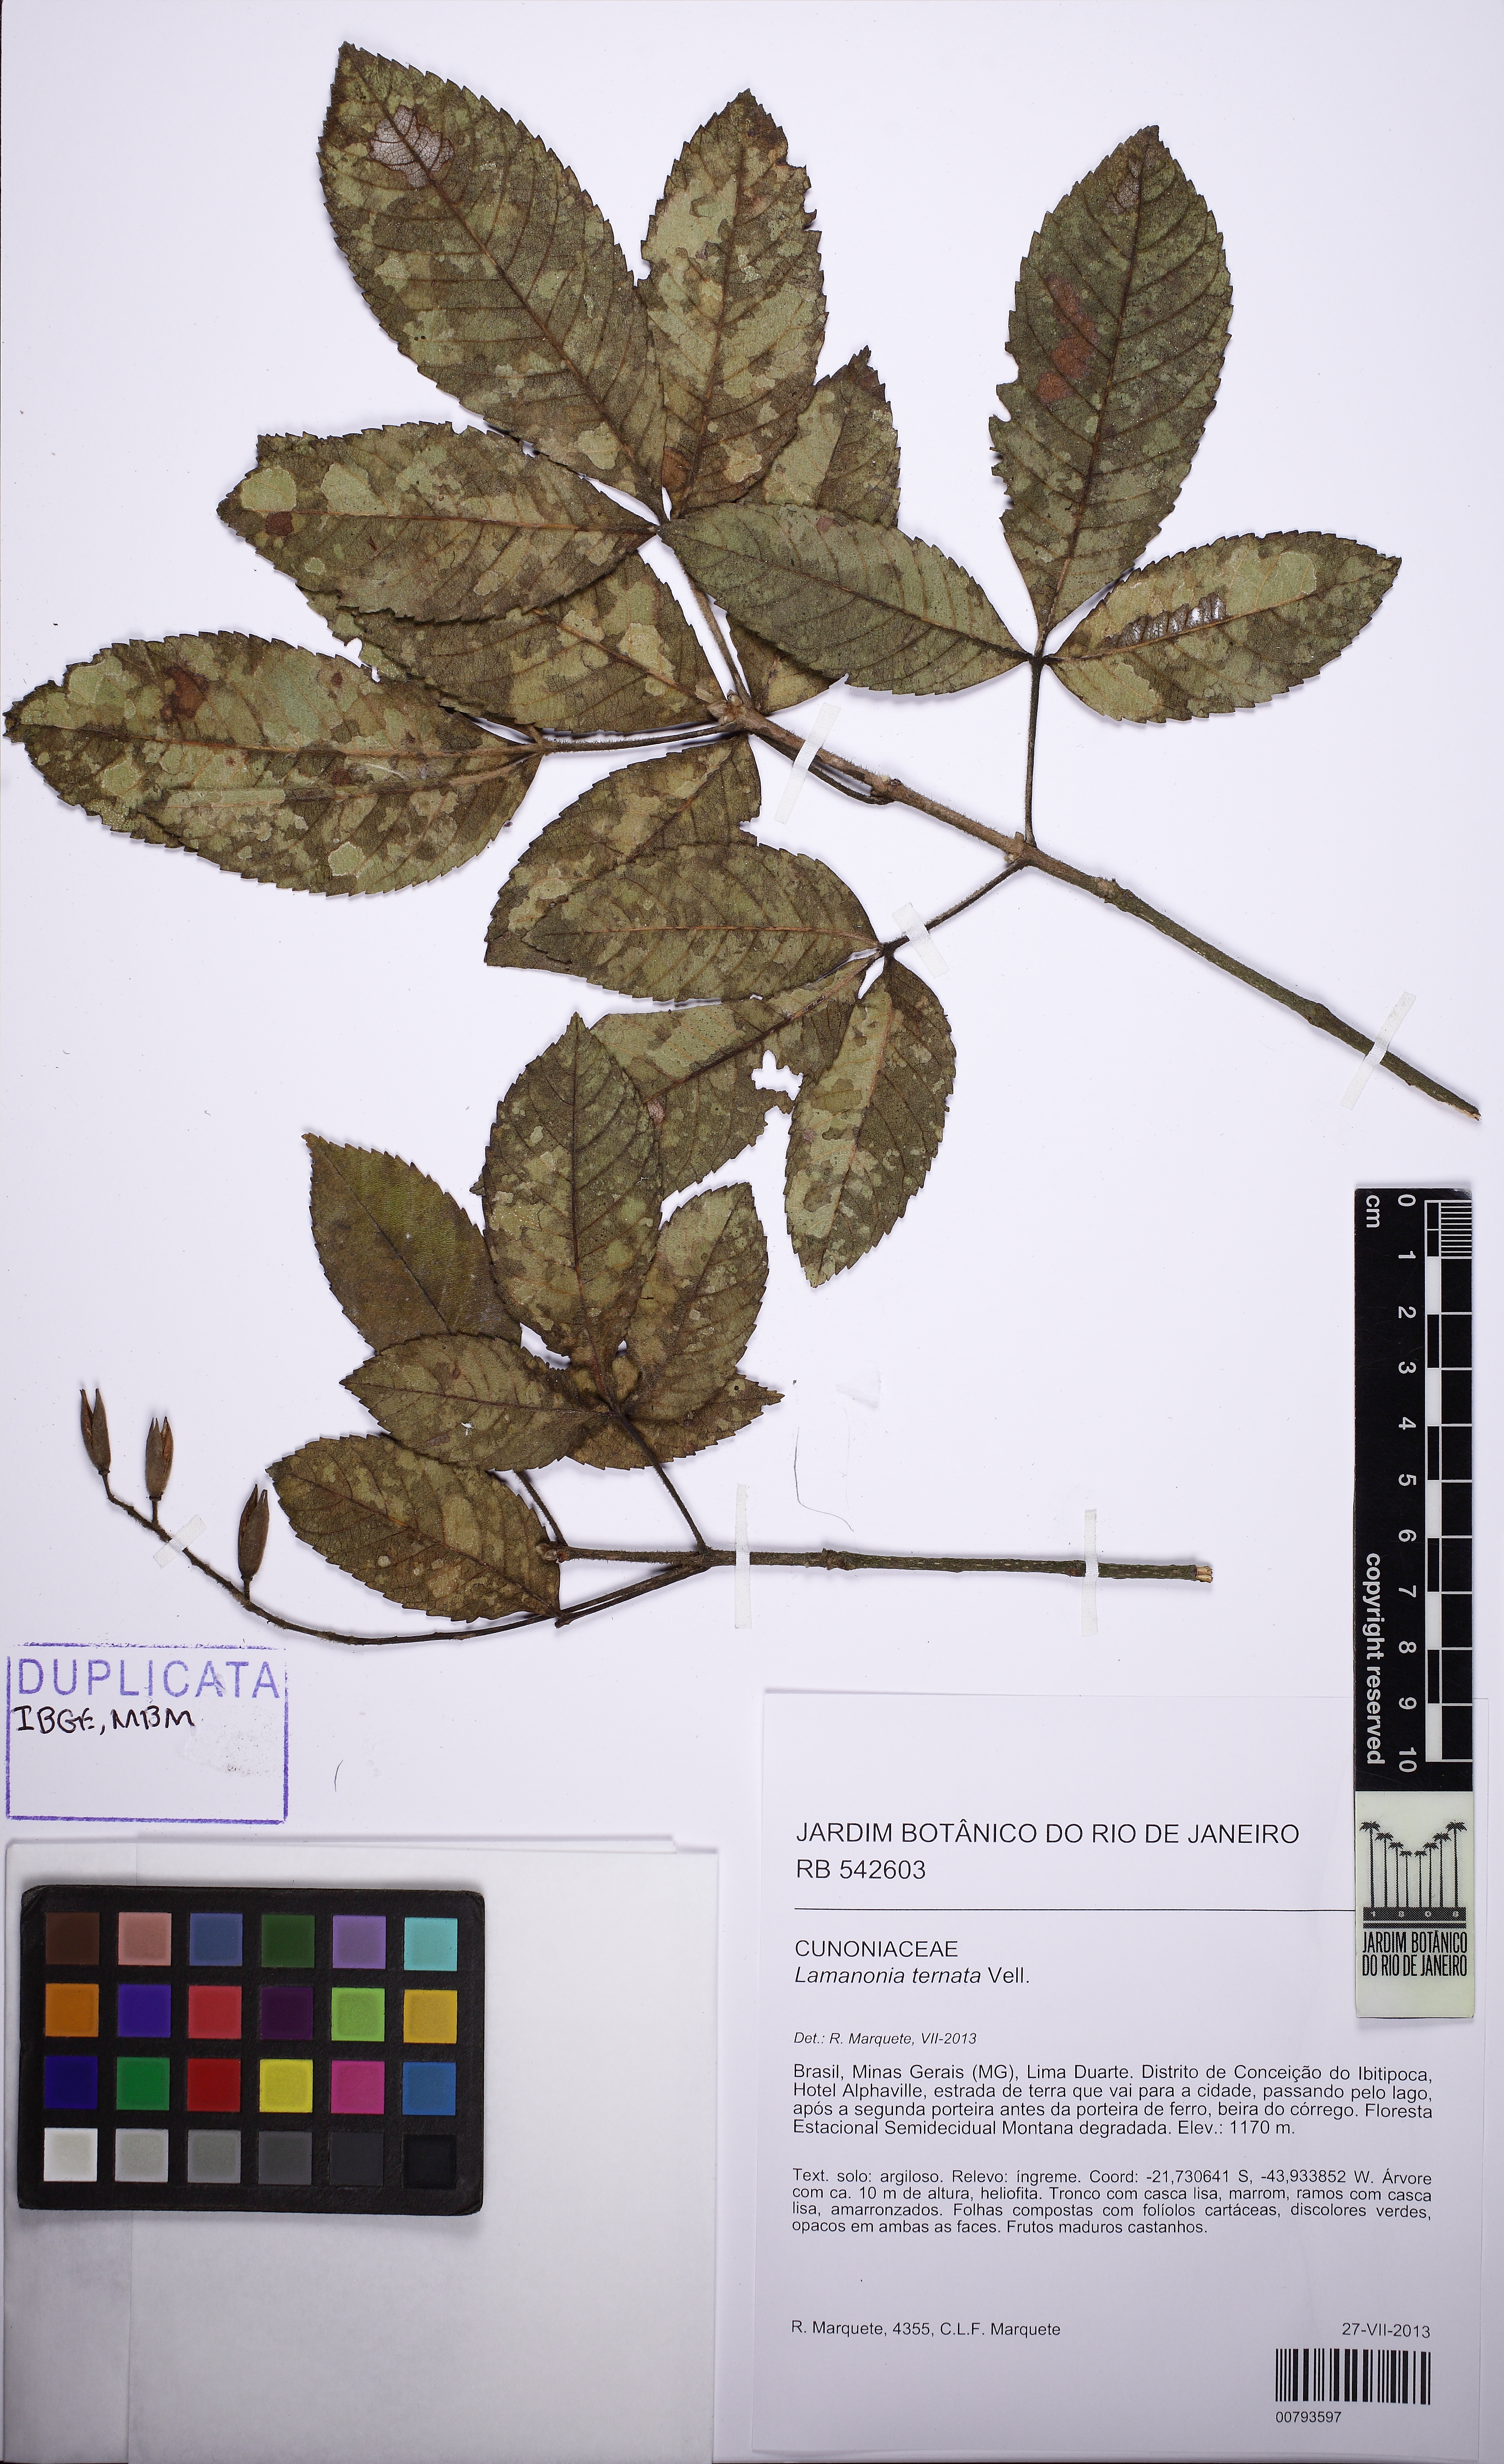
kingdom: Plantae
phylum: Tracheophyta
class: Magnoliopsida
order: Oxalidales
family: Cunoniaceae
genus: Lamanonia
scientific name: Lamanonia ternata
